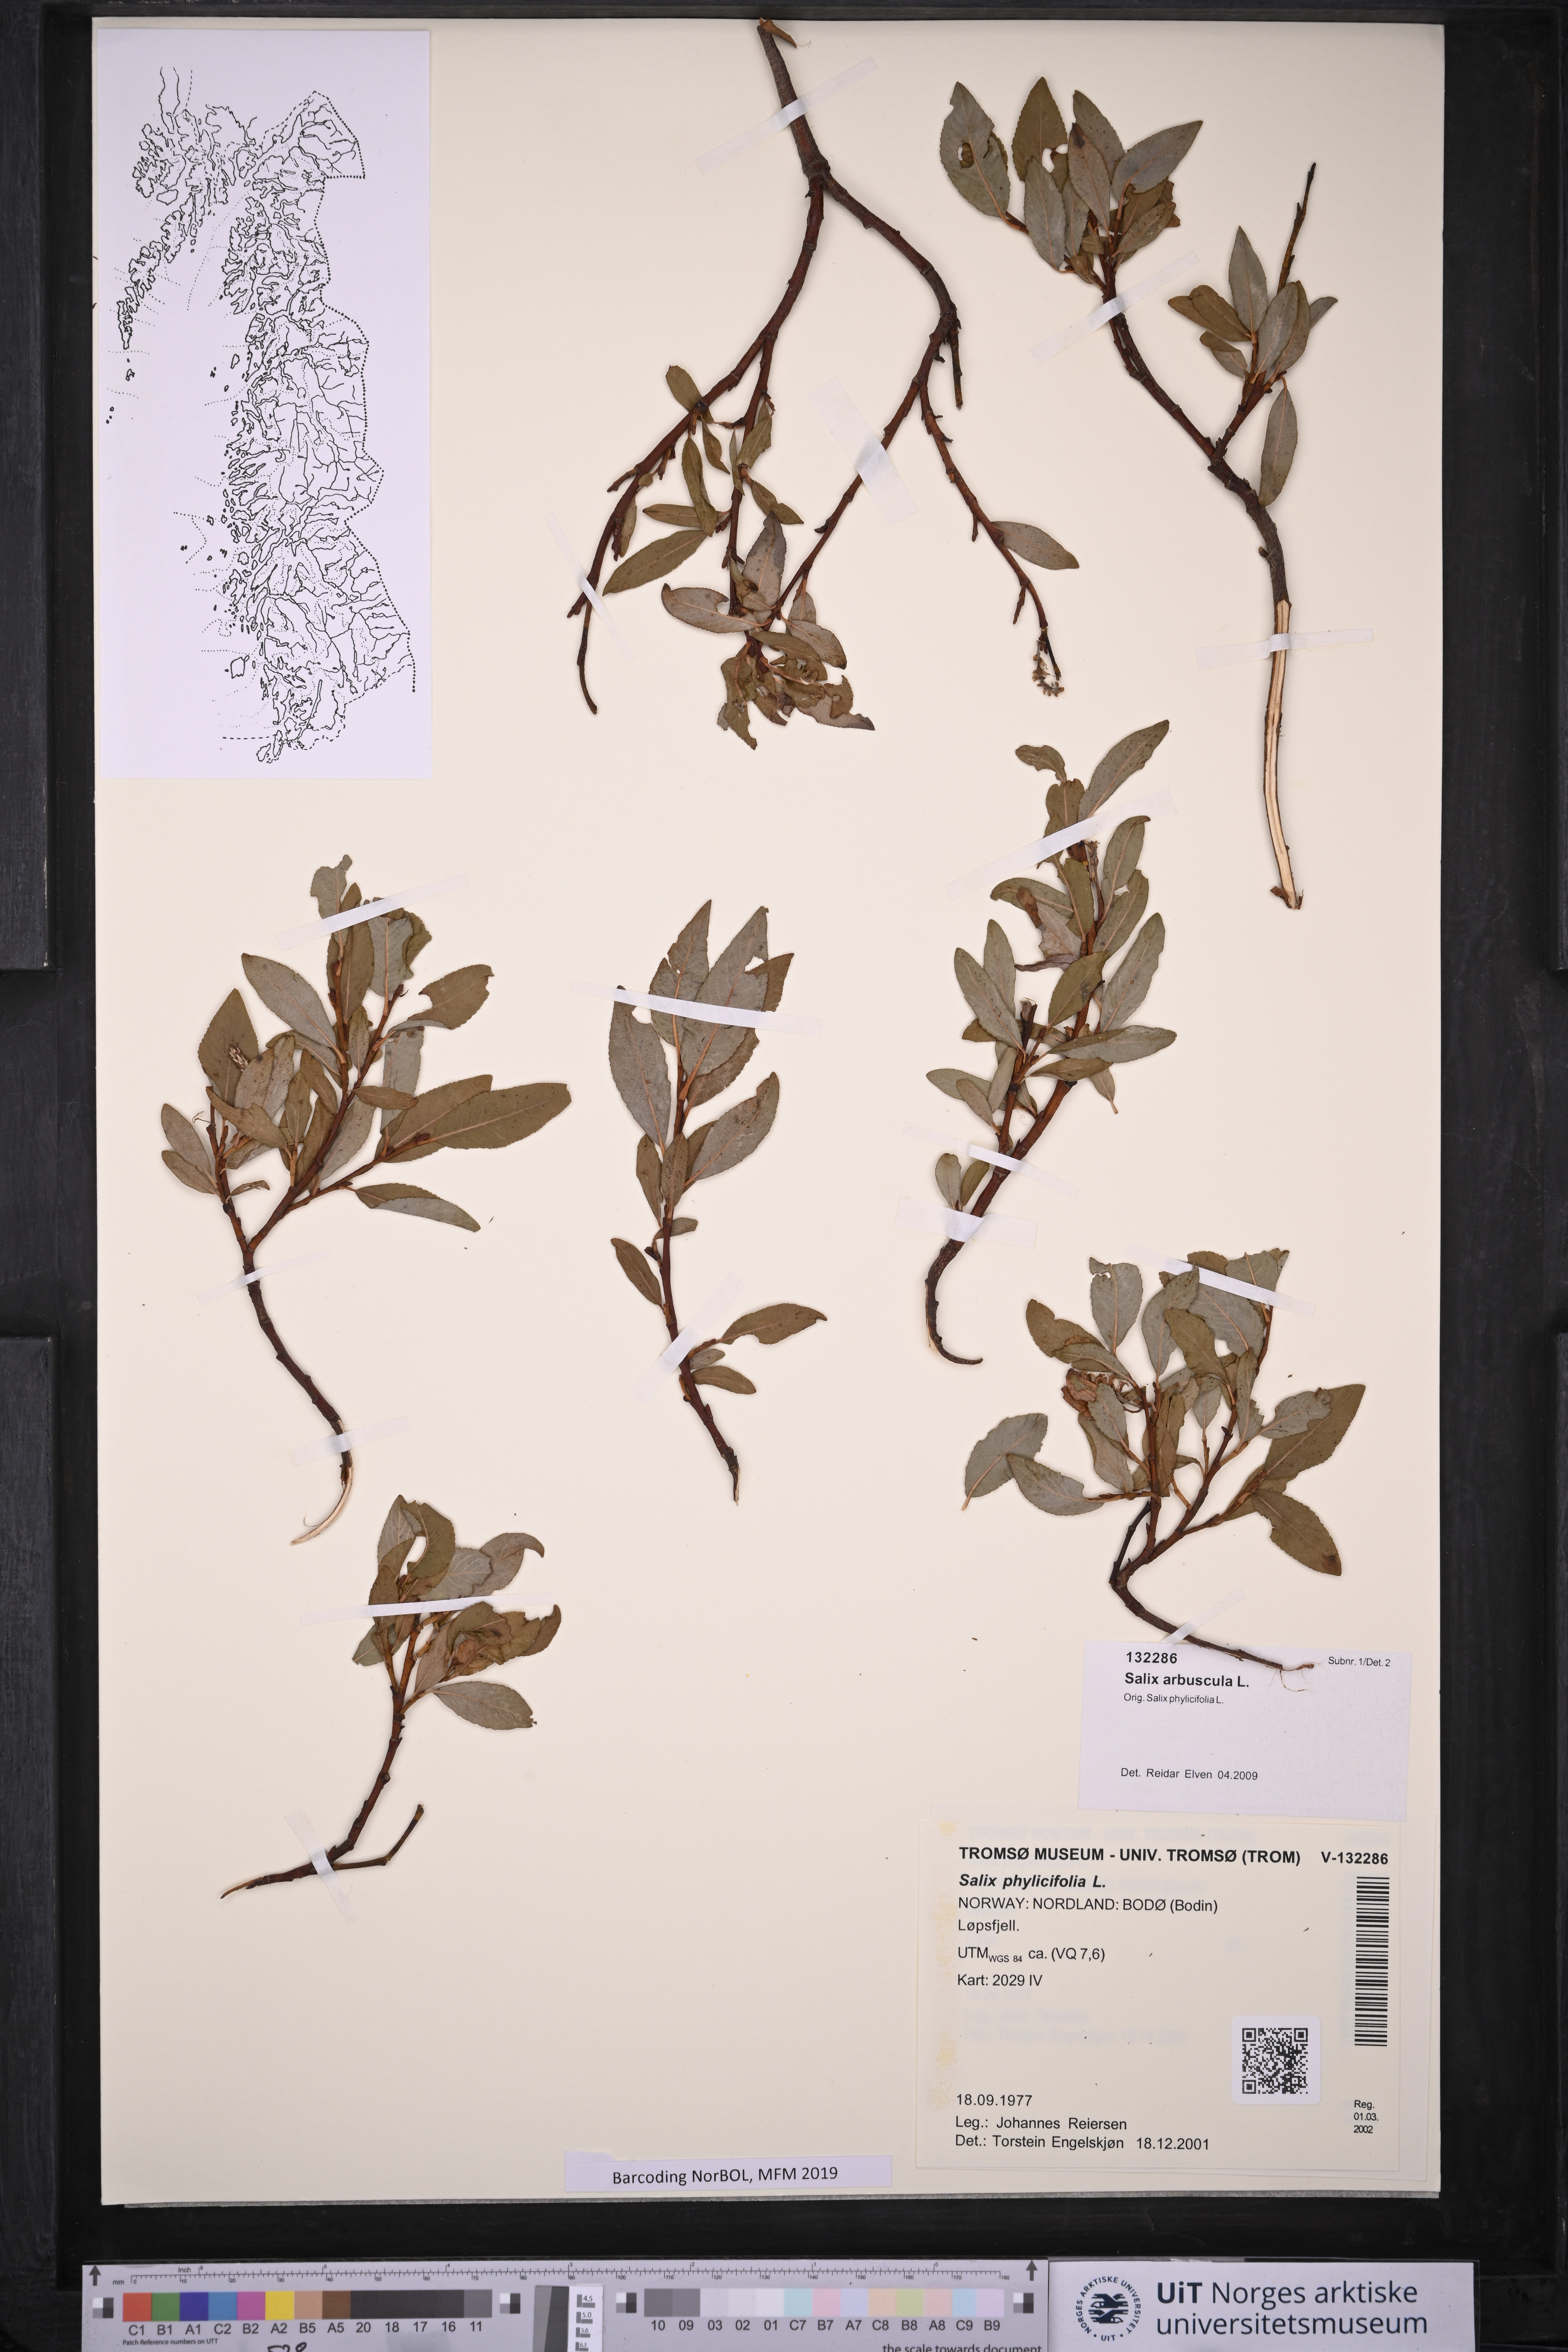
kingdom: Plantae
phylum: Tracheophyta
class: Magnoliopsida
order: Malpighiales
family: Salicaceae
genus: Salix
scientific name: Salix arbuscula
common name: Mountain willow
